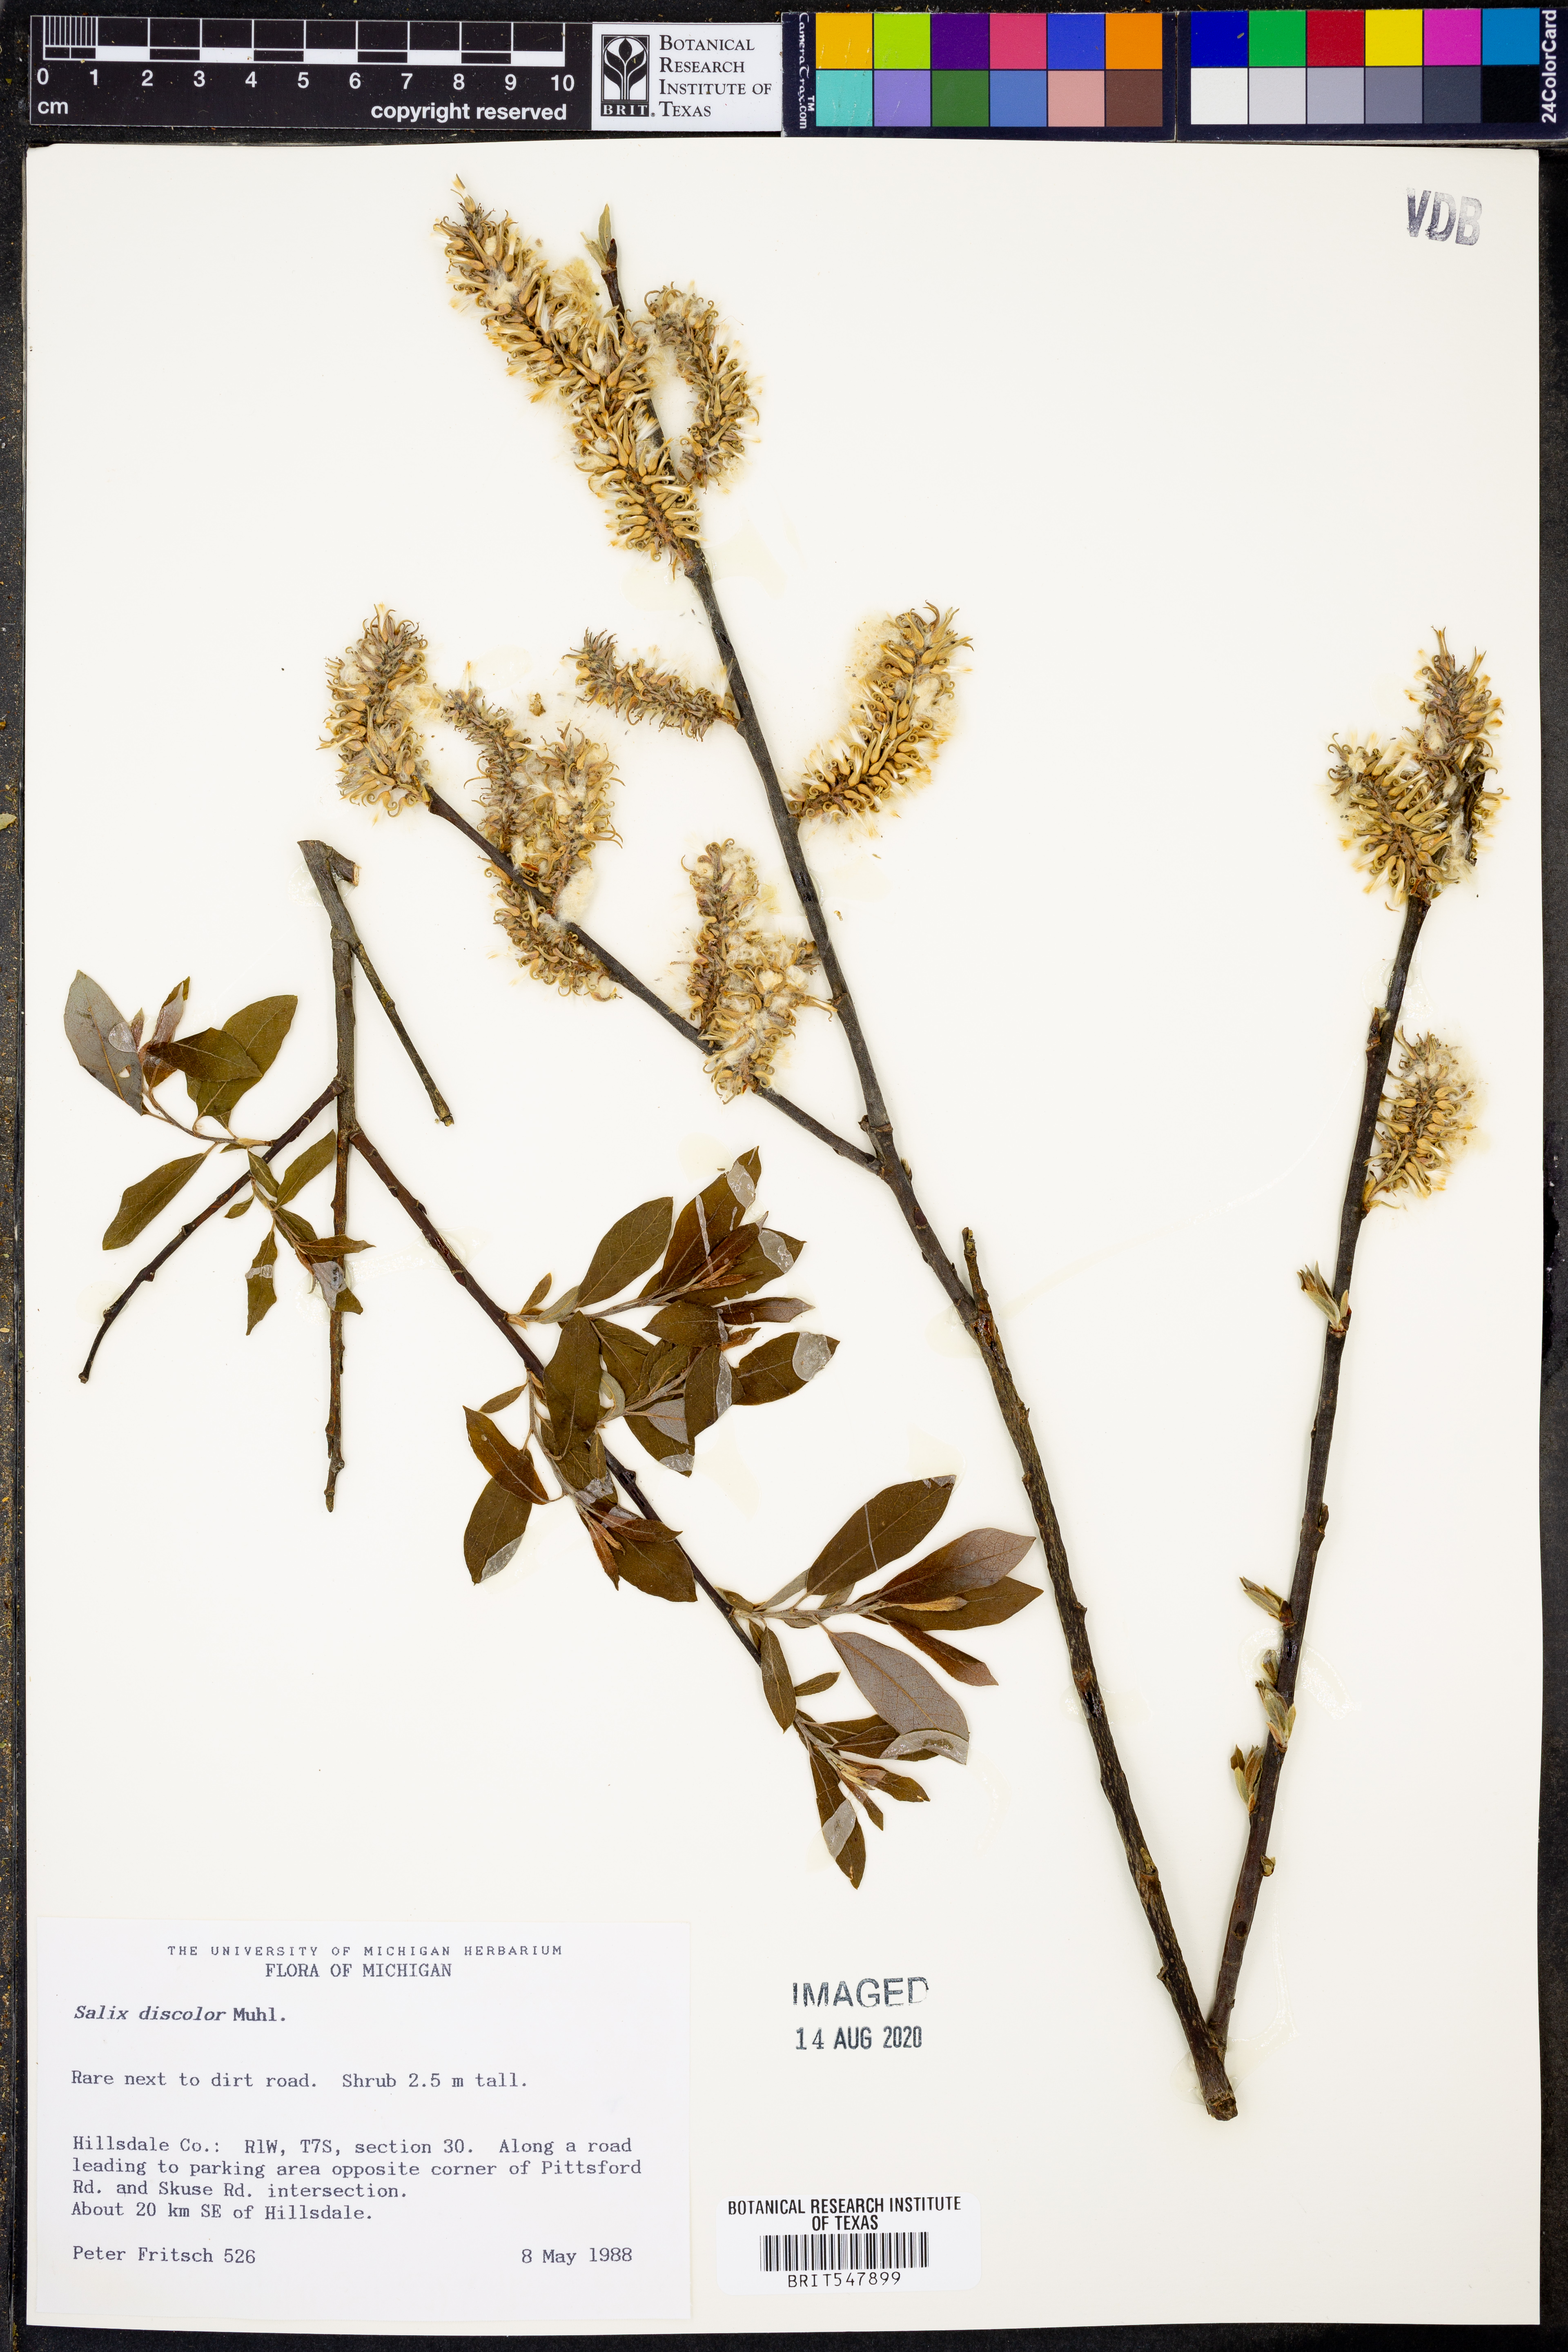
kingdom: Plantae
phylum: Tracheophyta
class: Magnoliopsida
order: Malpighiales
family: Salicaceae
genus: Salix
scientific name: Salix discolor
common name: Glaucous willow
